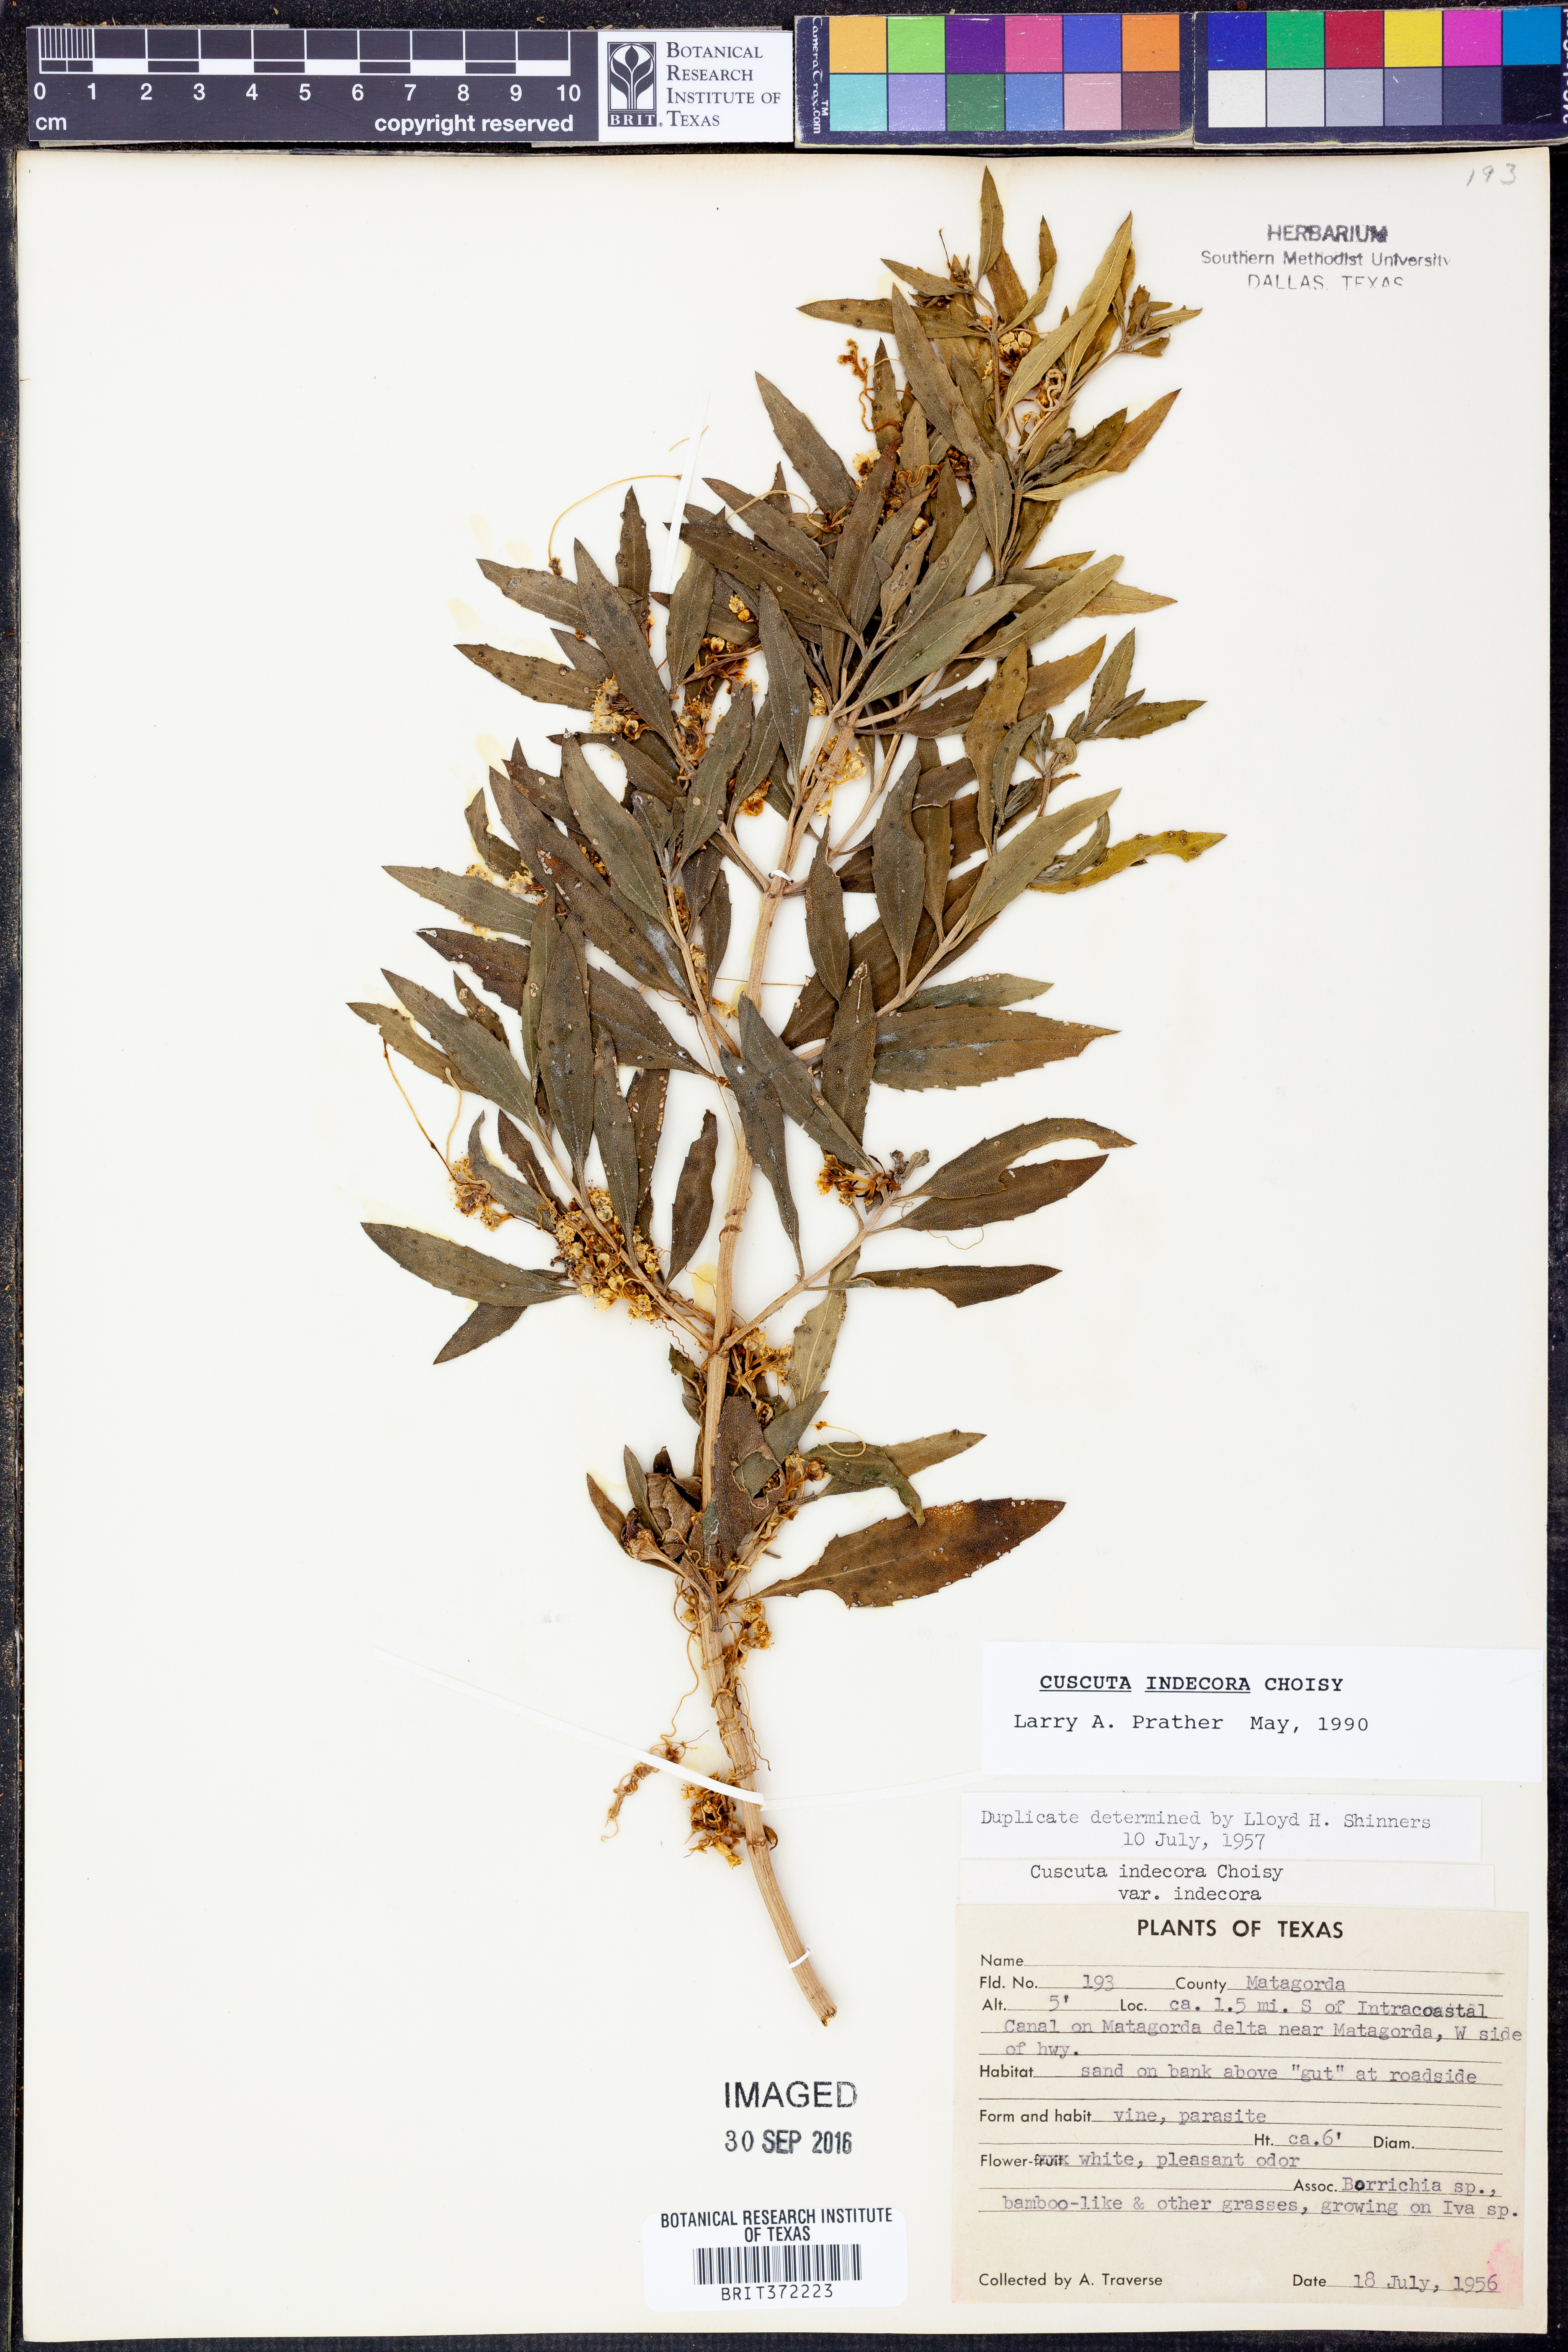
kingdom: Plantae
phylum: Tracheophyta
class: Magnoliopsida
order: Solanales
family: Convolvulaceae
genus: Cuscuta
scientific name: Cuscuta indecora
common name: Large-seed dodder
